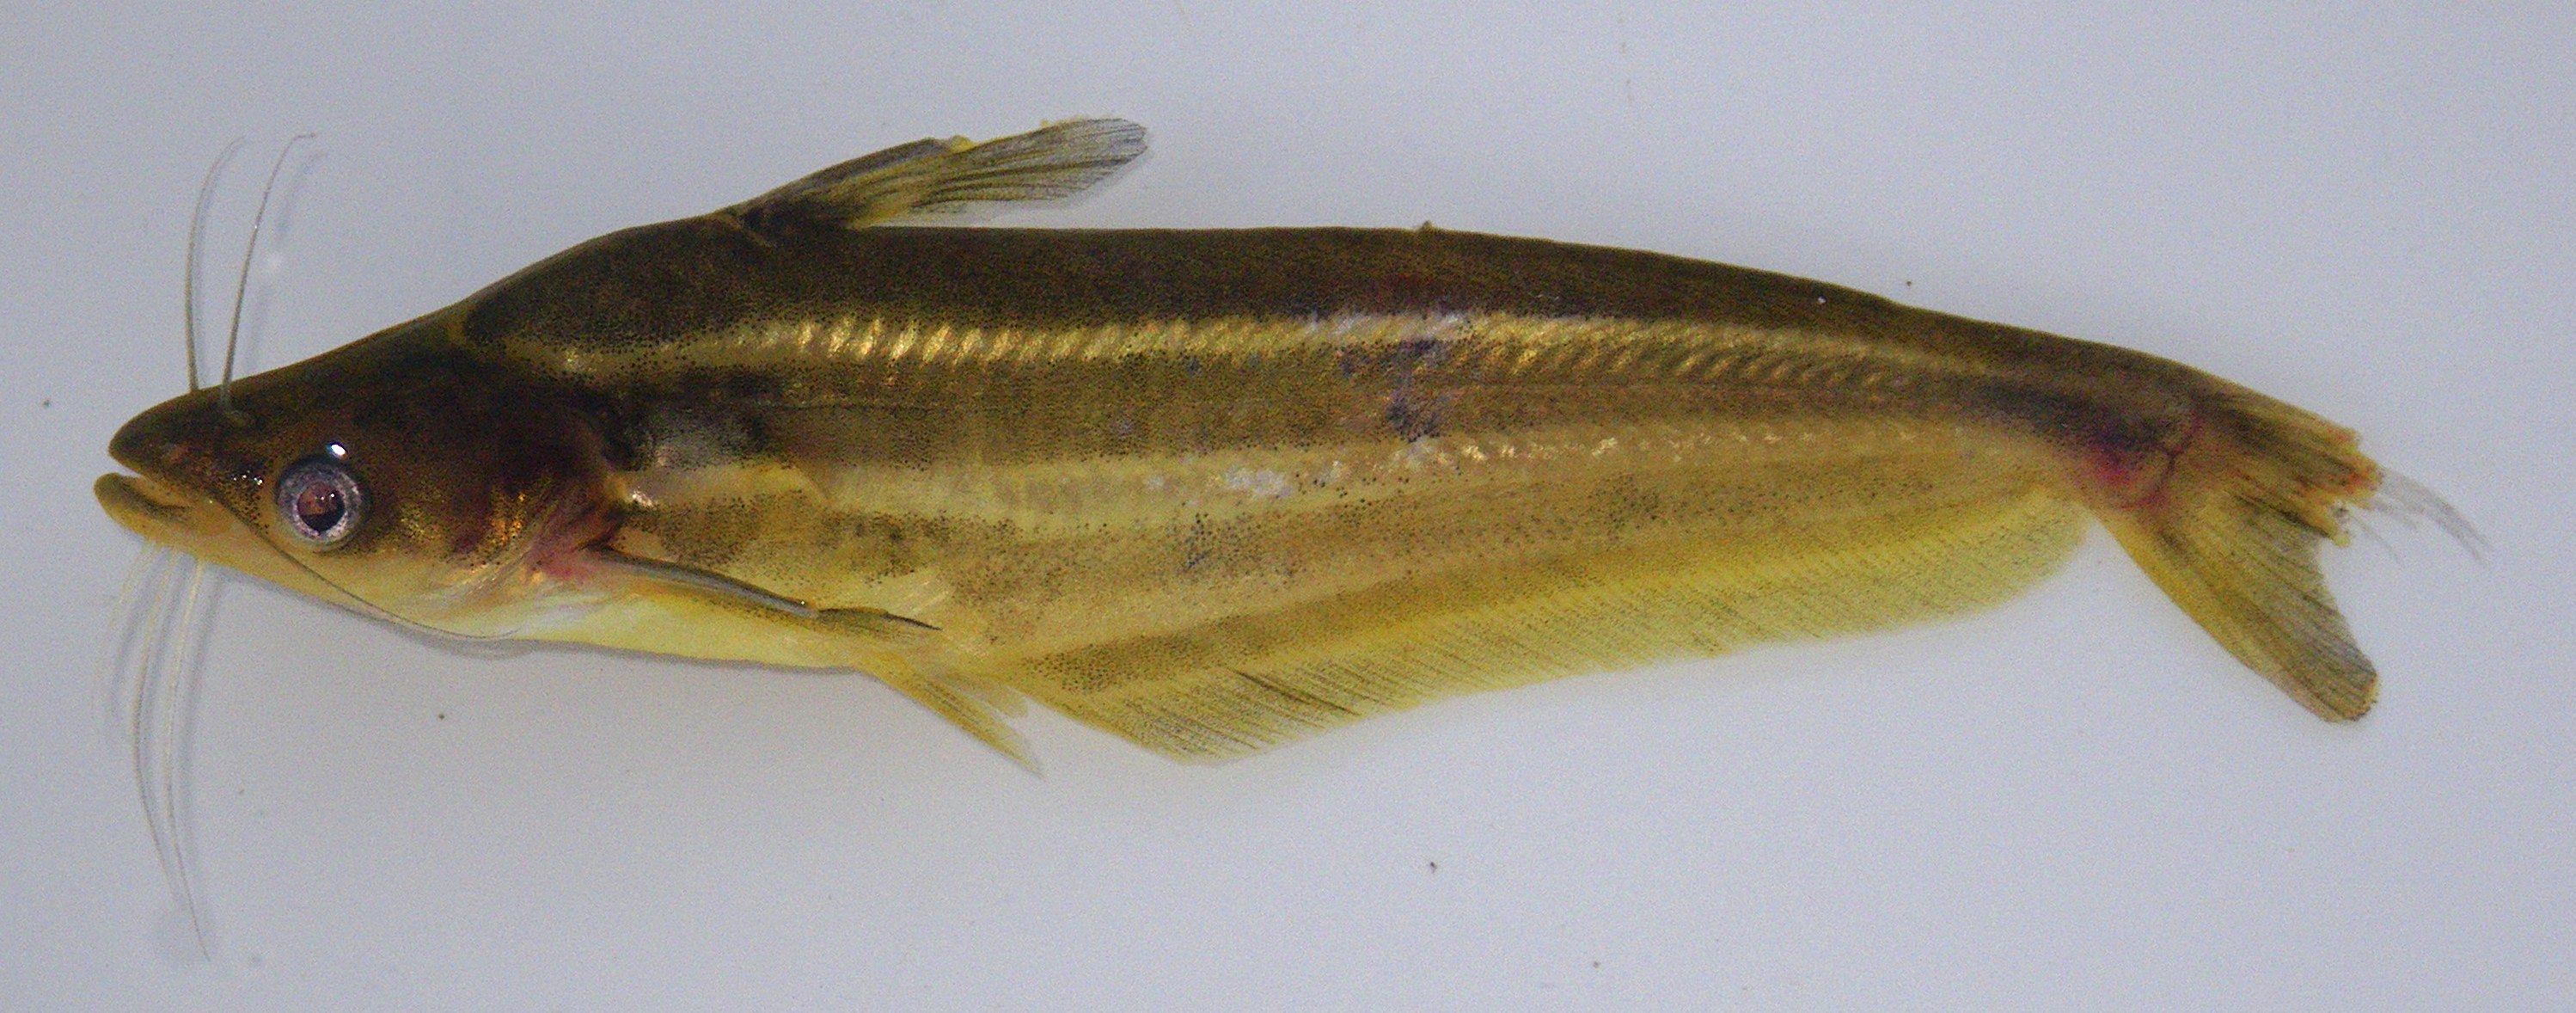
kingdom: Animalia
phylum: Chordata
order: Siluriformes
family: Schilbeidae
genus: Schilbe
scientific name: Schilbe intermedius
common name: Silver catfish
